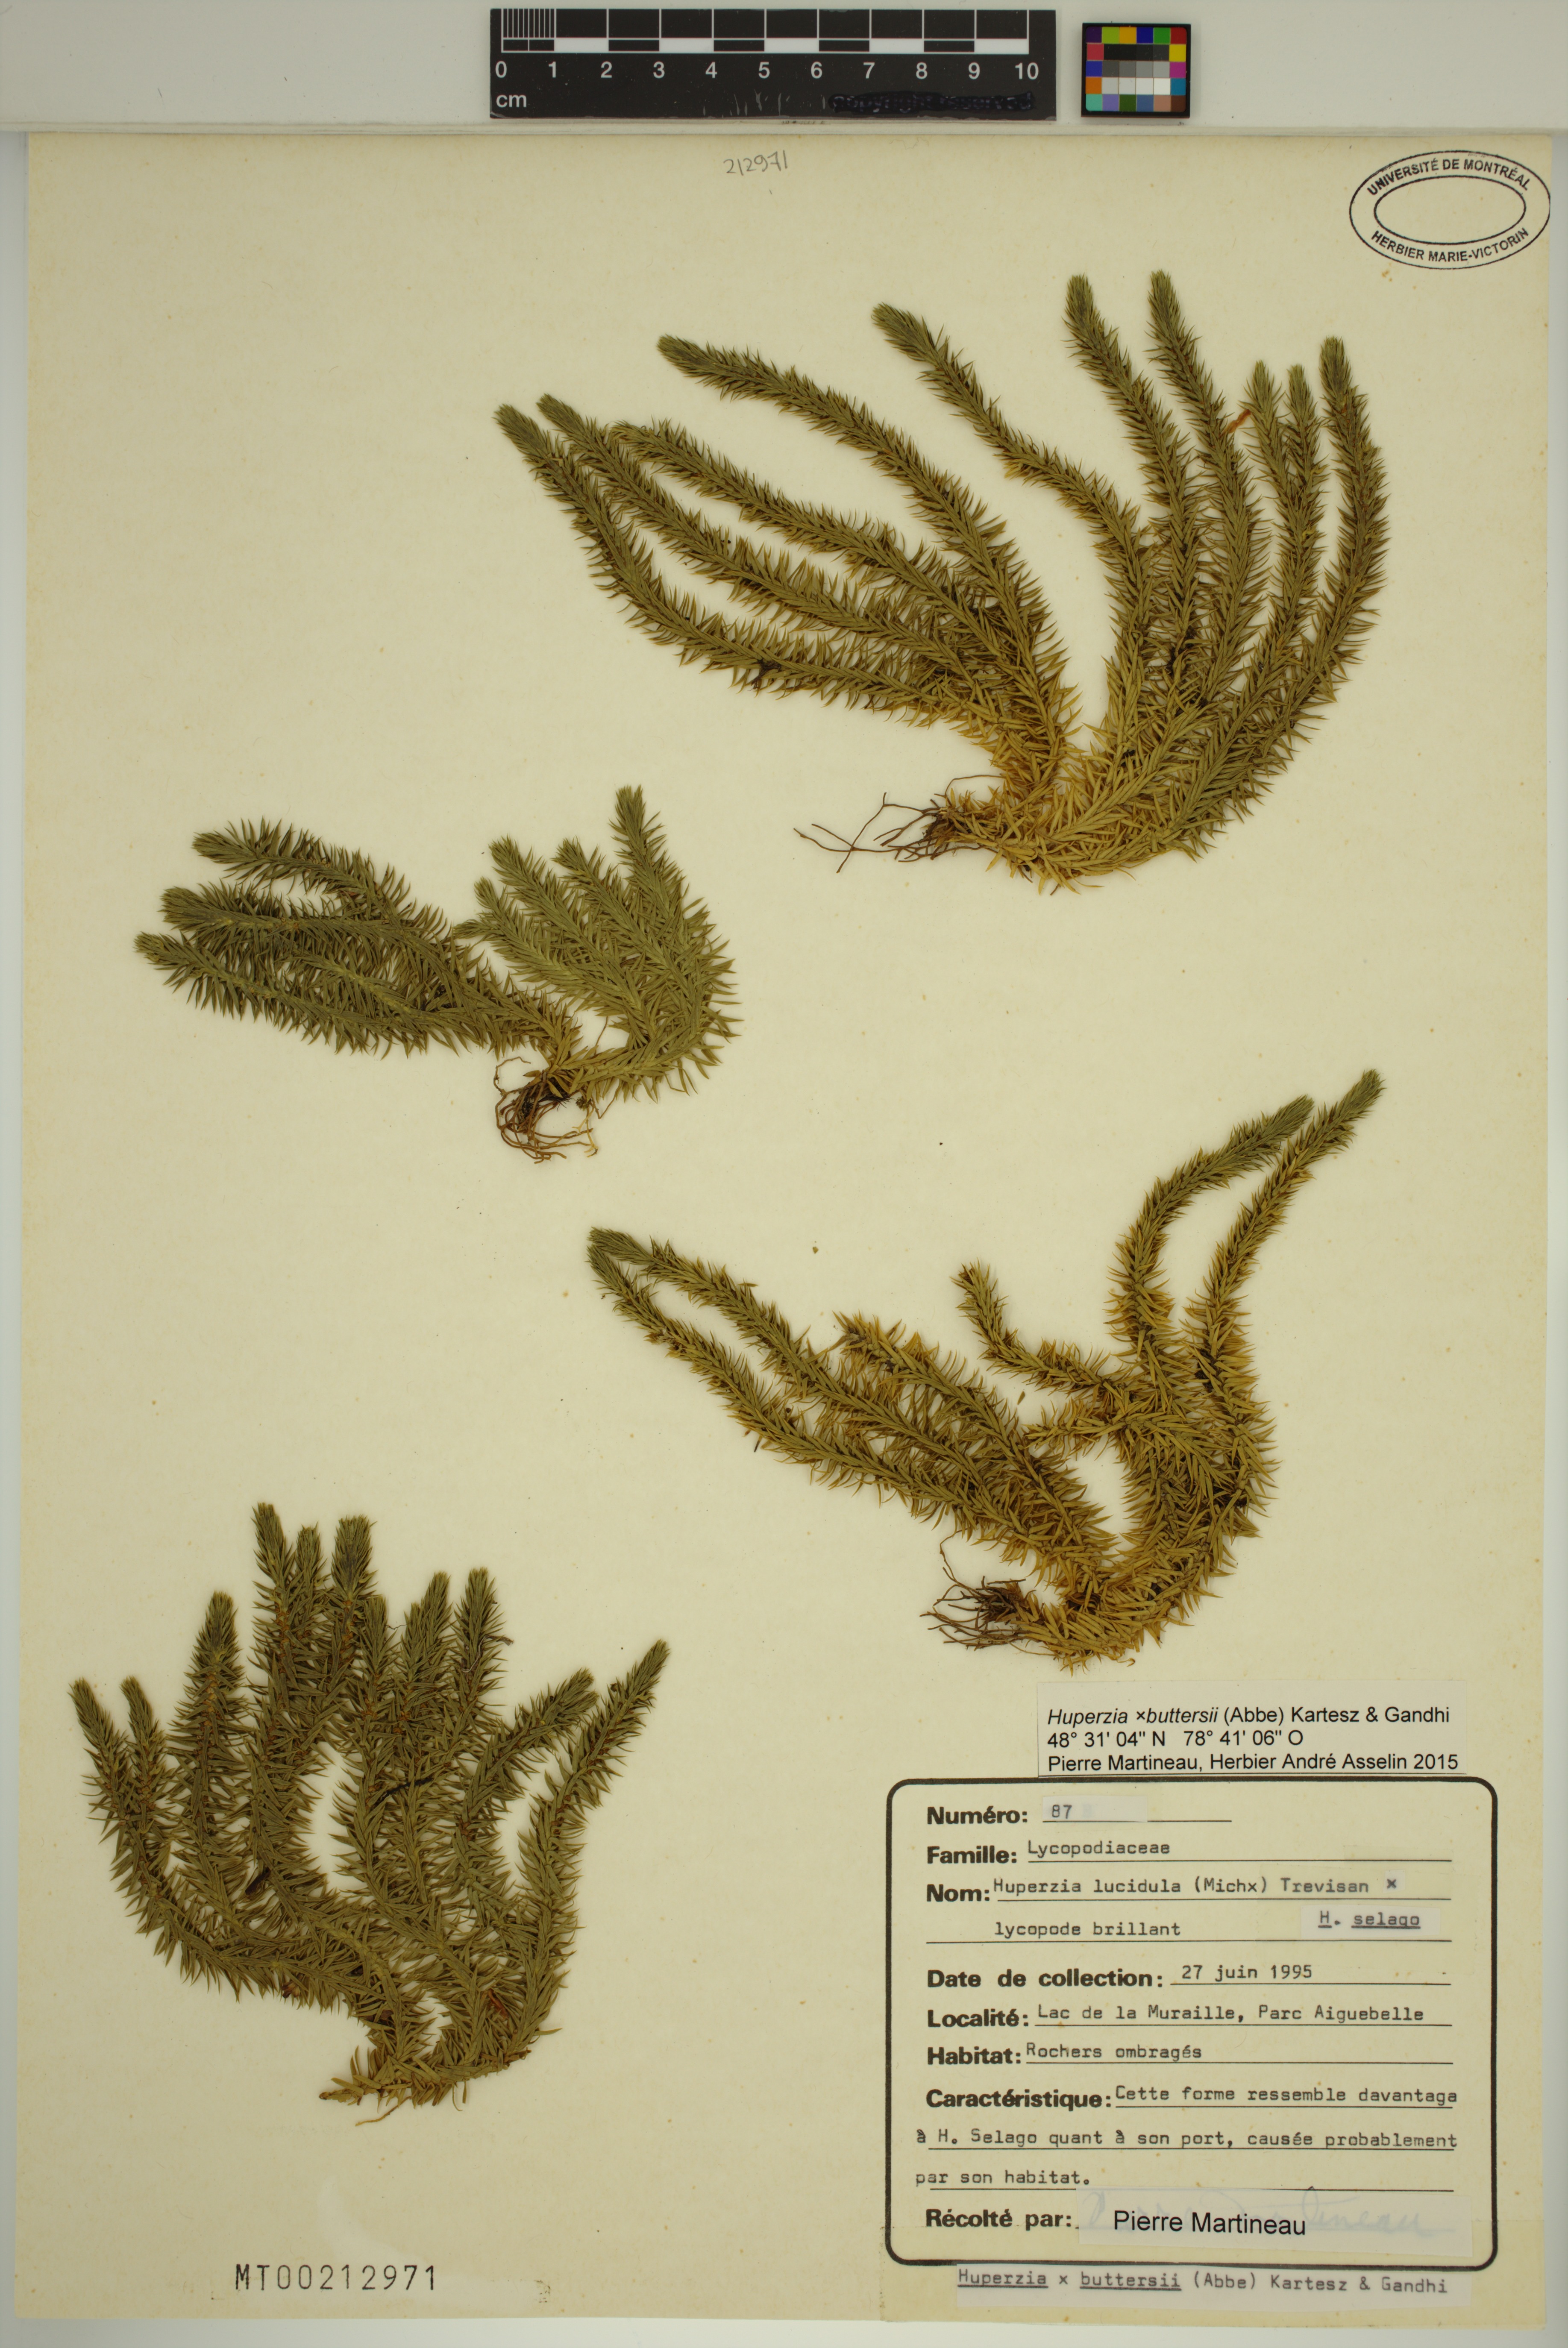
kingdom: Plantae
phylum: Tracheophyta
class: Lycopodiopsida
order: Lycopodiales
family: Lycopodiaceae
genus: Huperzia
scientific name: Huperzia buttersii
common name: Butters' clubmoss
